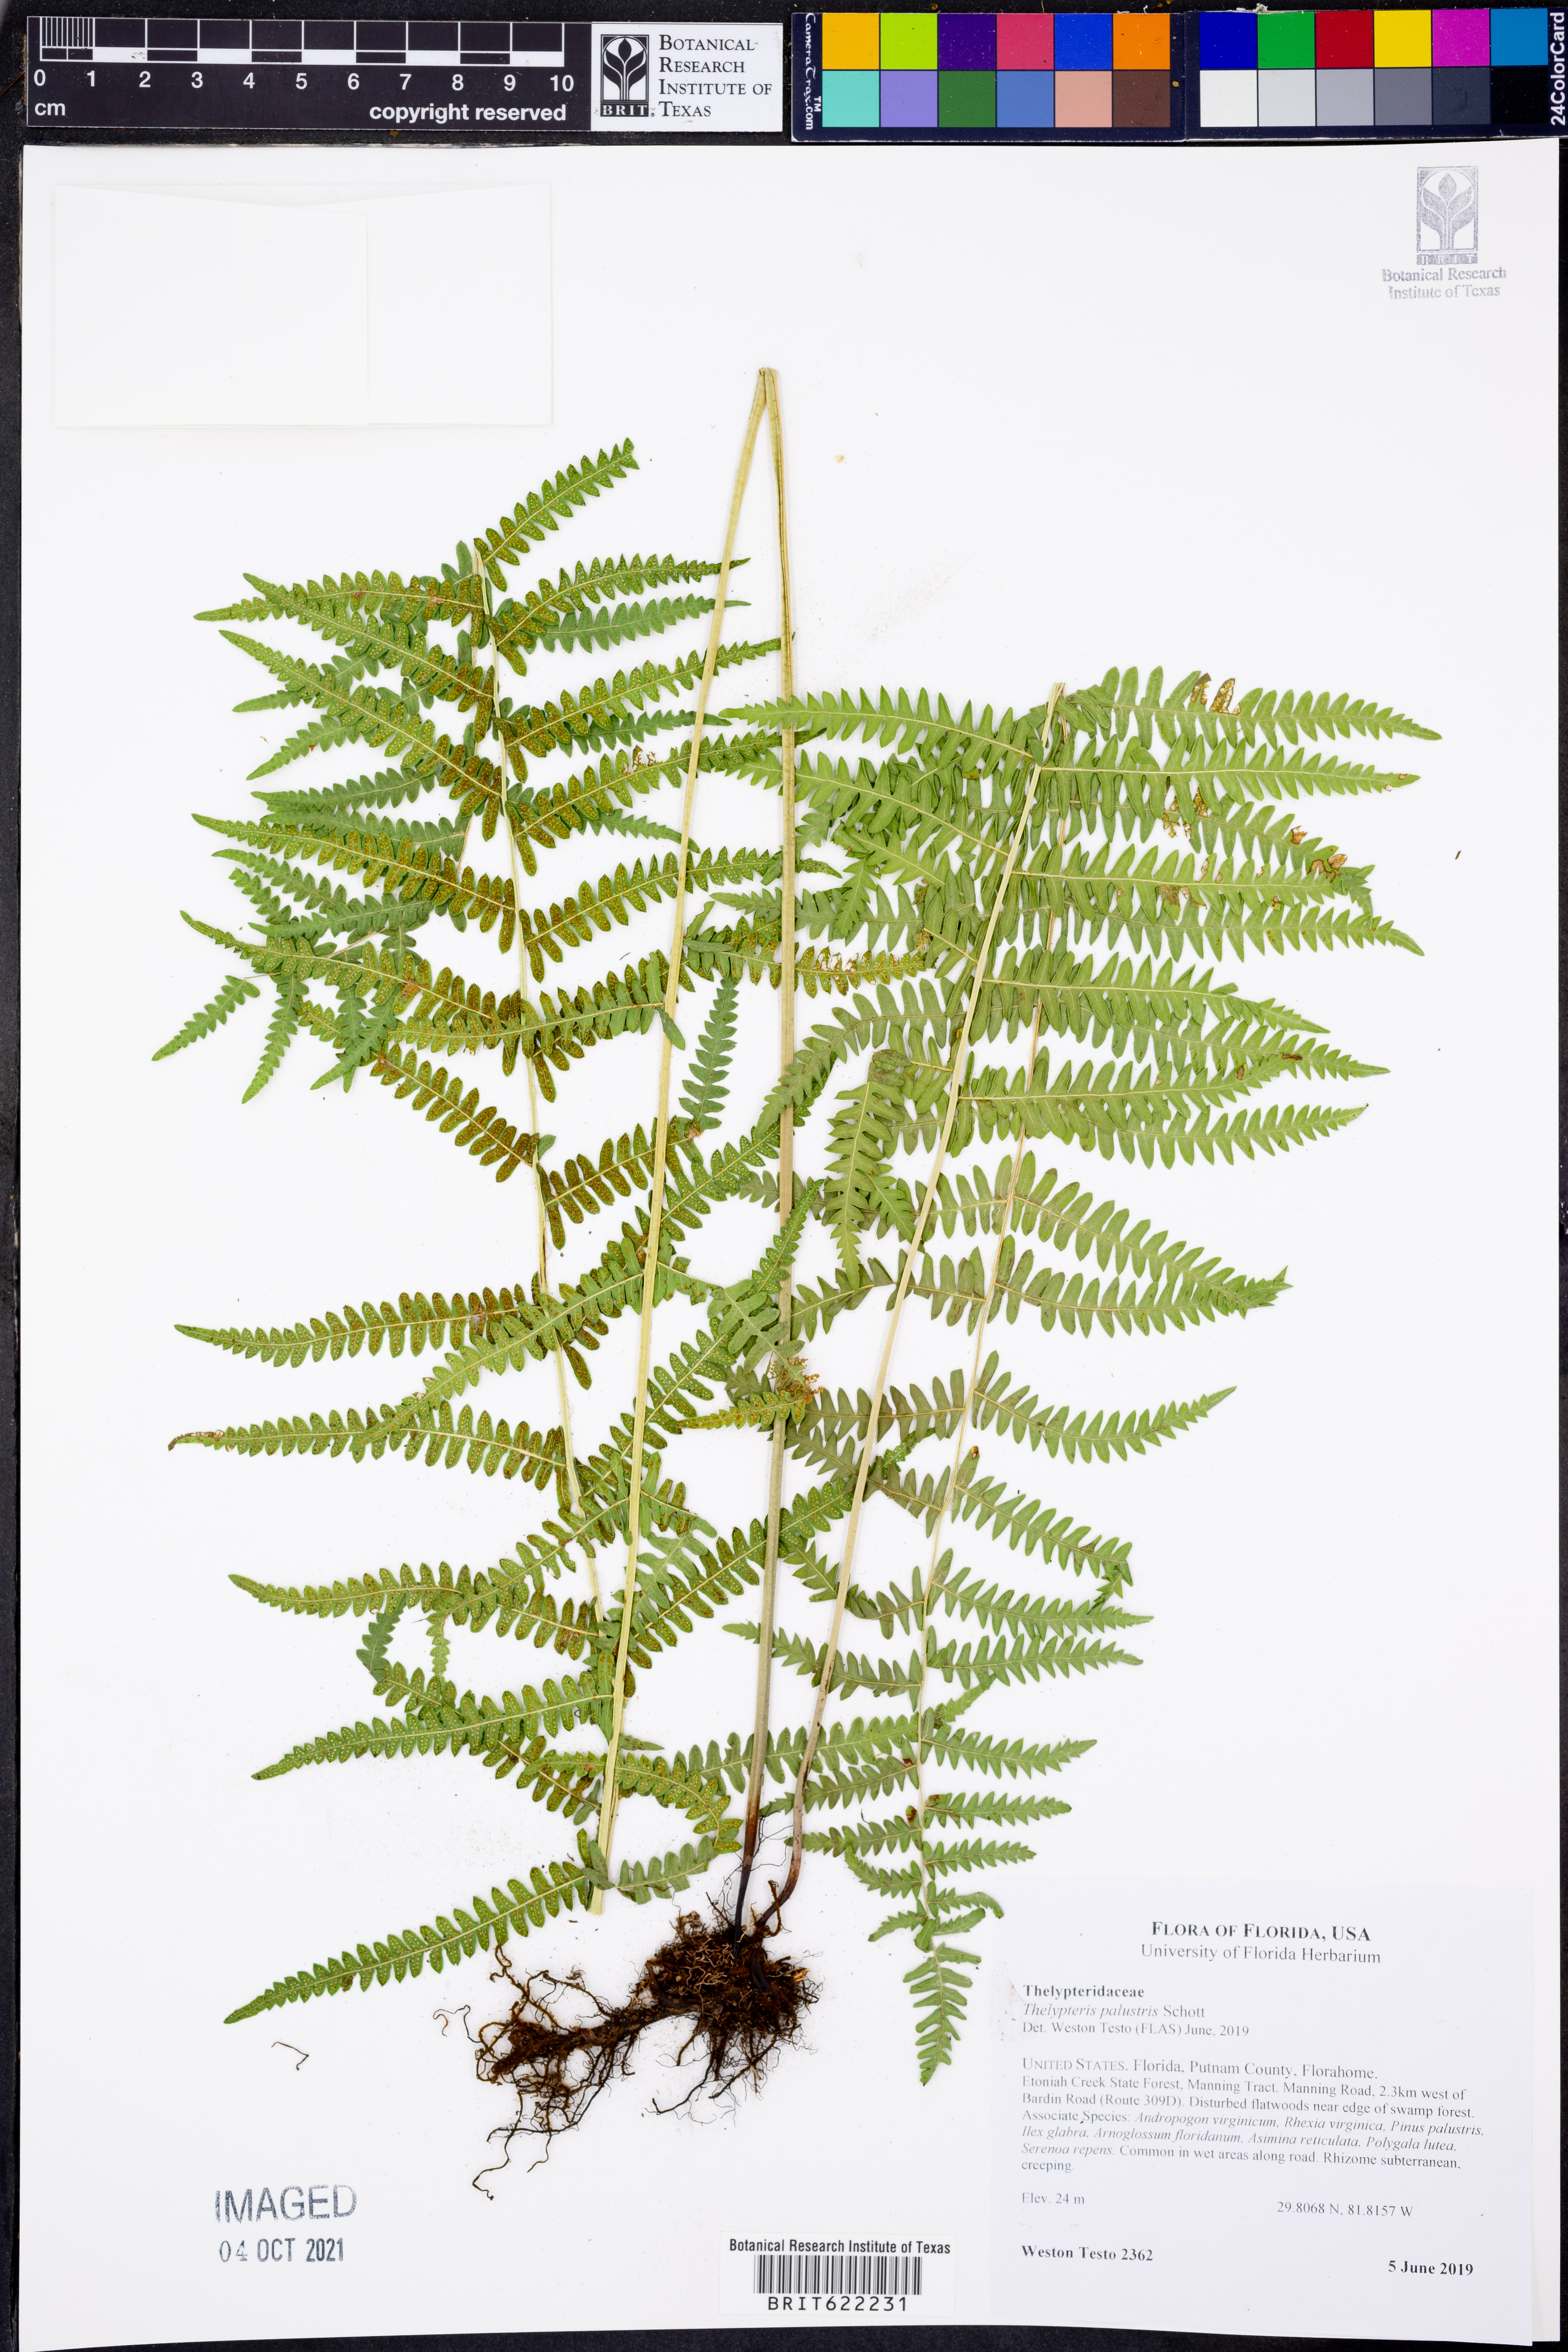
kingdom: Plantae
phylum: Tracheophyta
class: Polypodiopsida
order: Polypodiales
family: Thelypteridaceae
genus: Thelypteris
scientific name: Thelypteris palustris
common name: Marsh fern
